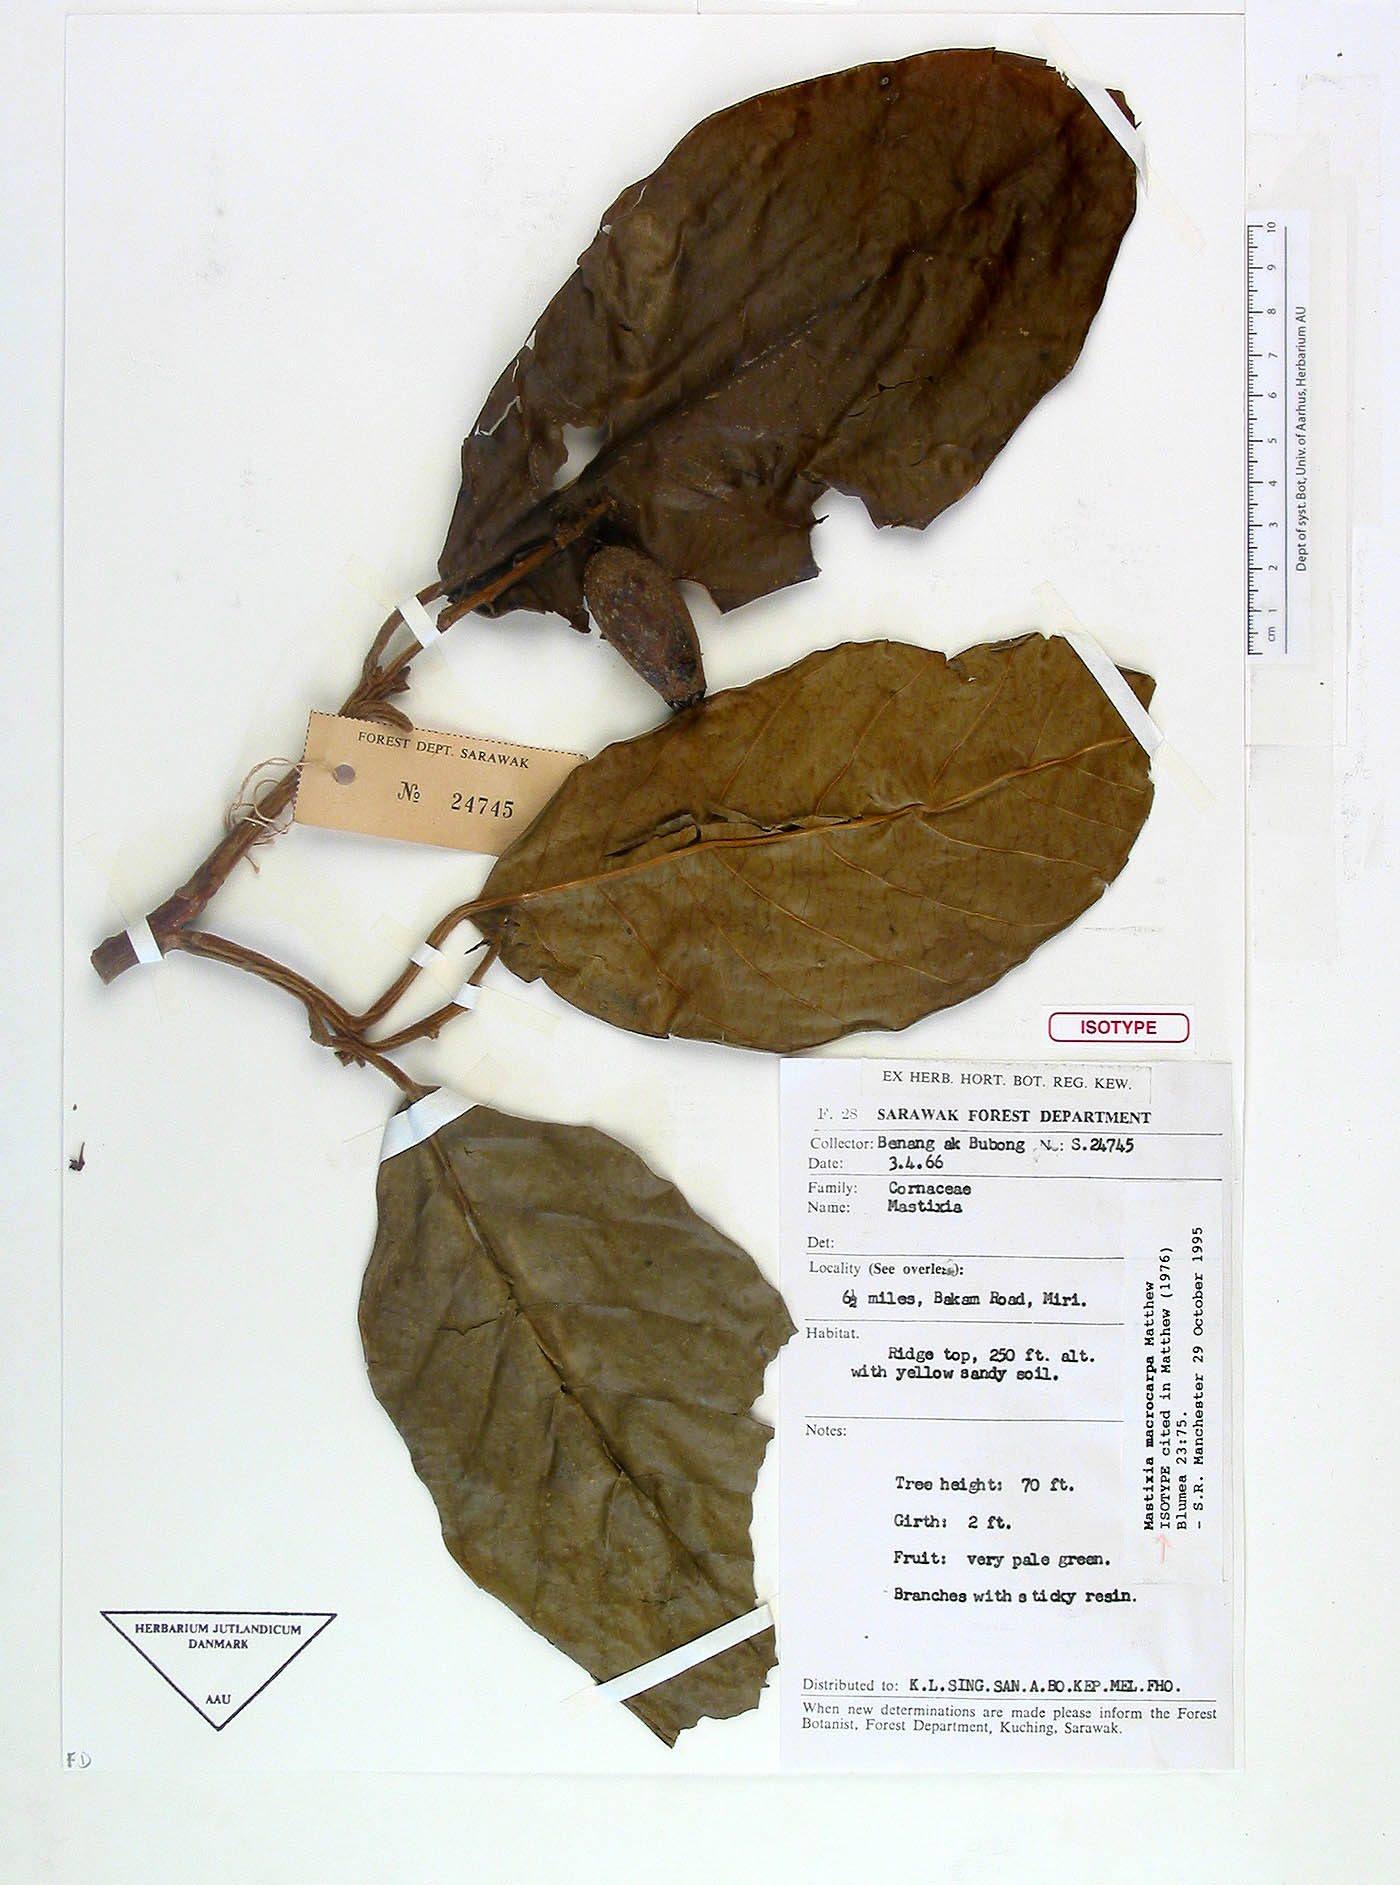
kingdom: Plantae
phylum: Tracheophyta
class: Magnoliopsida
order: Cornales
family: Nyssaceae
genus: Mastixia
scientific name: Mastixia macrocarpa
